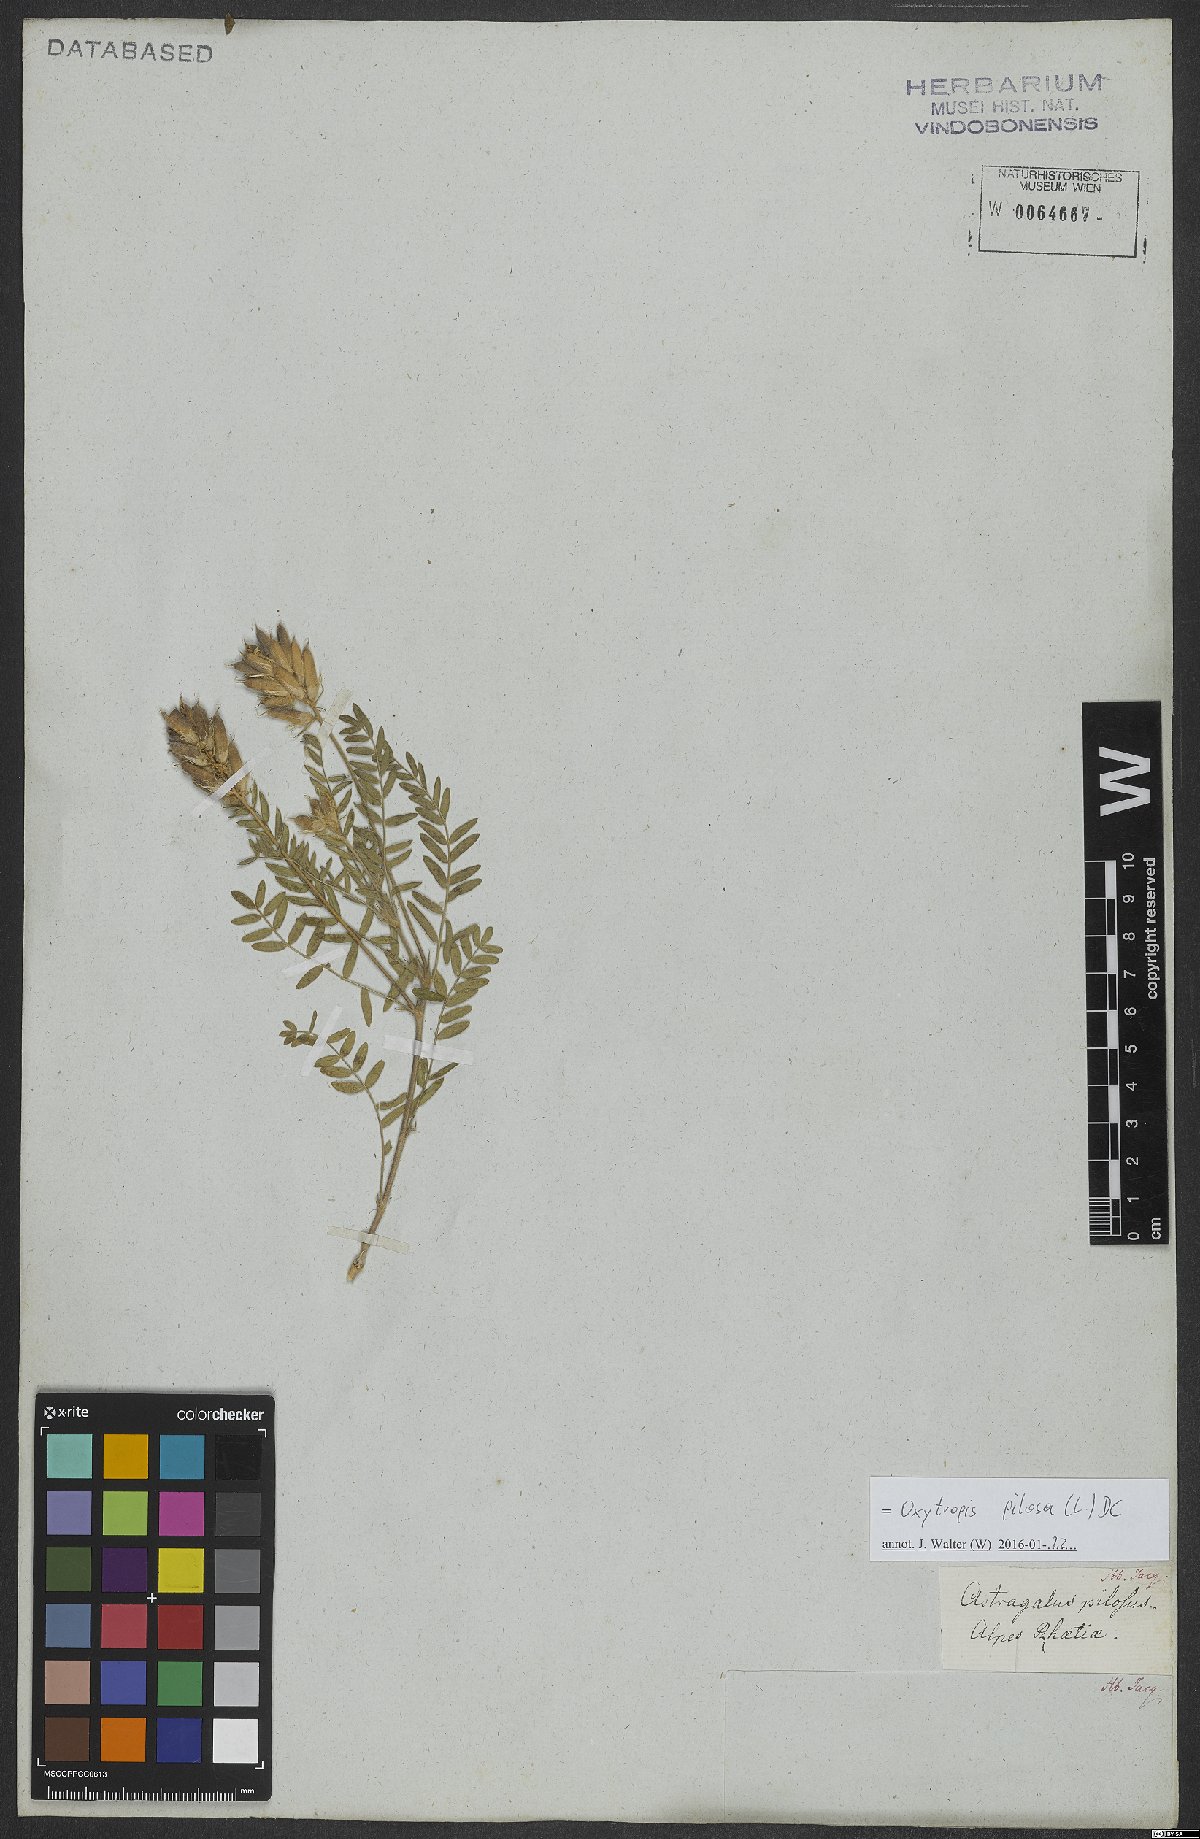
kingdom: Plantae
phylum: Tracheophyta
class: Magnoliopsida
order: Fabales
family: Fabaceae
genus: Oxytropis
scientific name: Oxytropis pilosa
